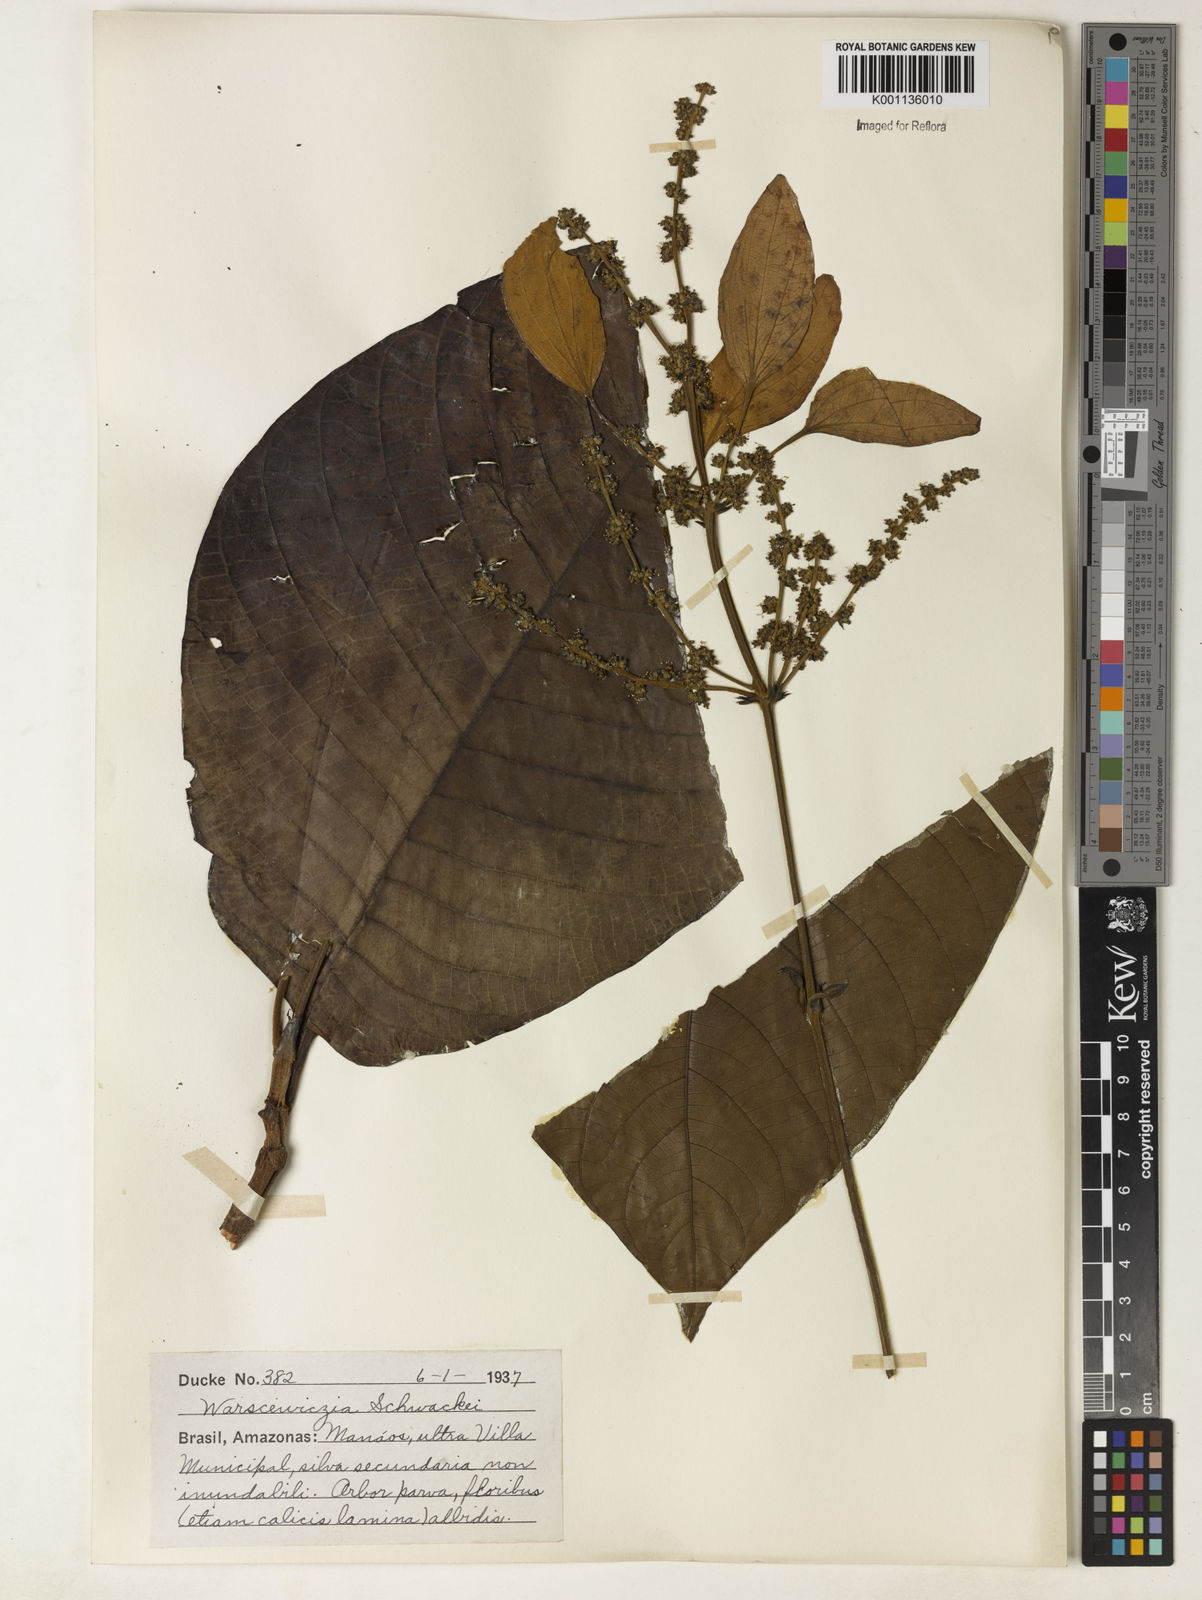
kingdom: Plantae
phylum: Tracheophyta
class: Magnoliopsida
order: Gentianales
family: Rubiaceae
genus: Warszewiczia
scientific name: Warszewiczia schwackei
